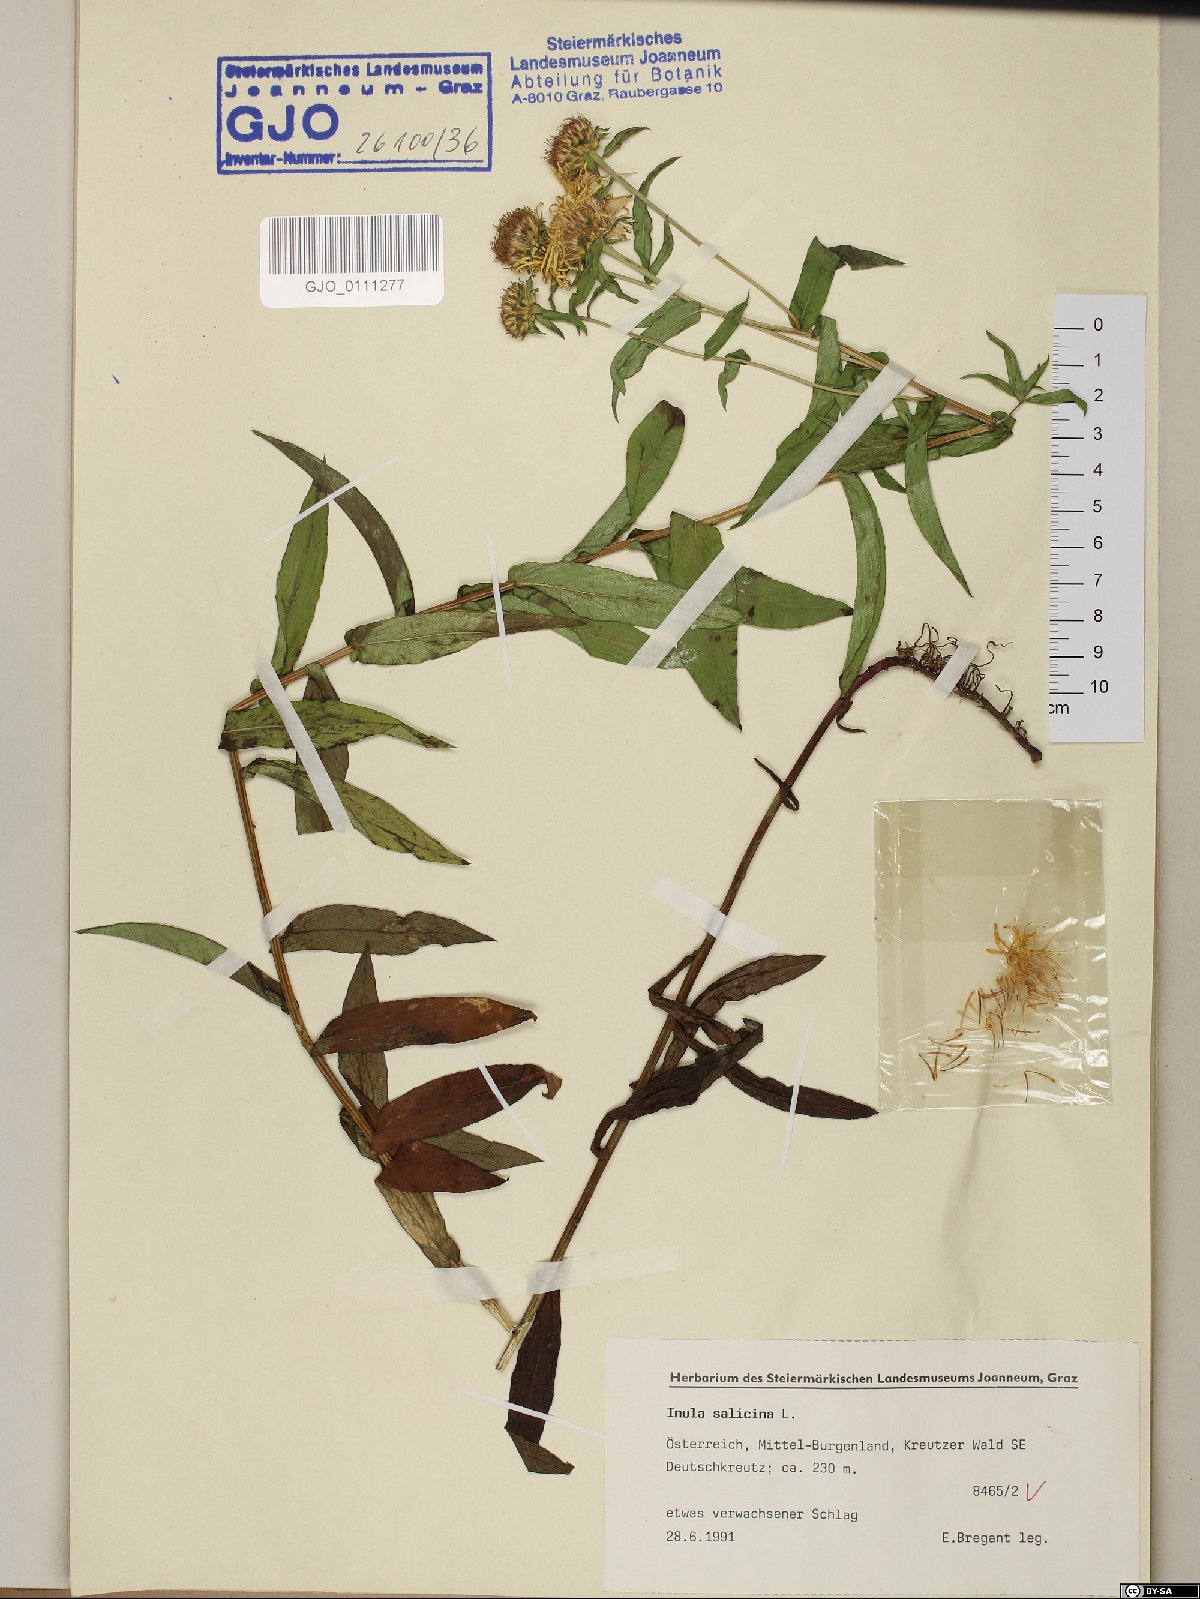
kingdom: Plantae
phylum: Tracheophyta
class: Magnoliopsida
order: Asterales
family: Asteraceae
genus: Pentanema
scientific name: Pentanema salicinum
